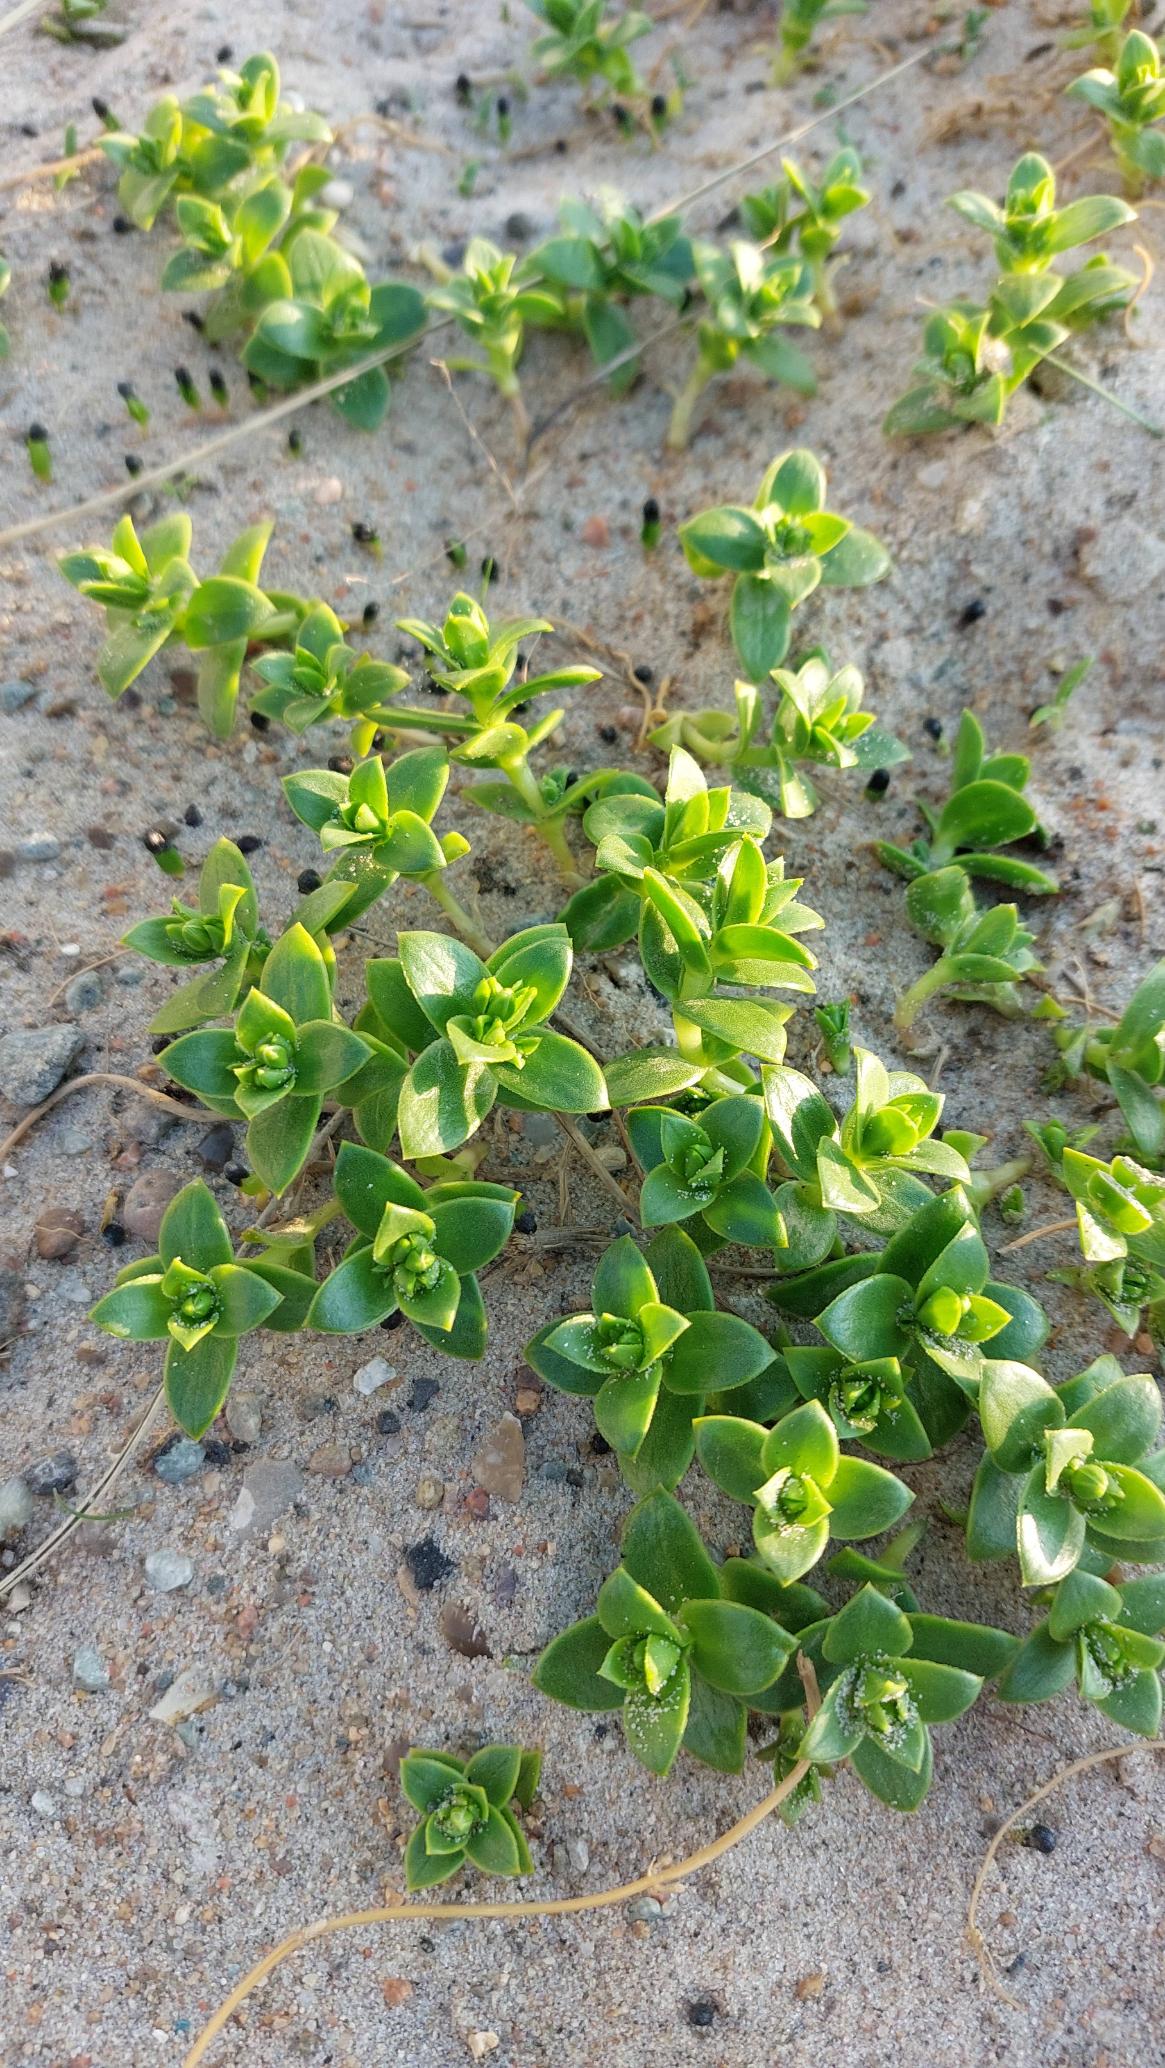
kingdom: Plantae
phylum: Tracheophyta
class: Magnoliopsida
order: Caryophyllales
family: Caryophyllaceae
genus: Honckenya
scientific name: Honckenya peploides
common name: Strandarve
